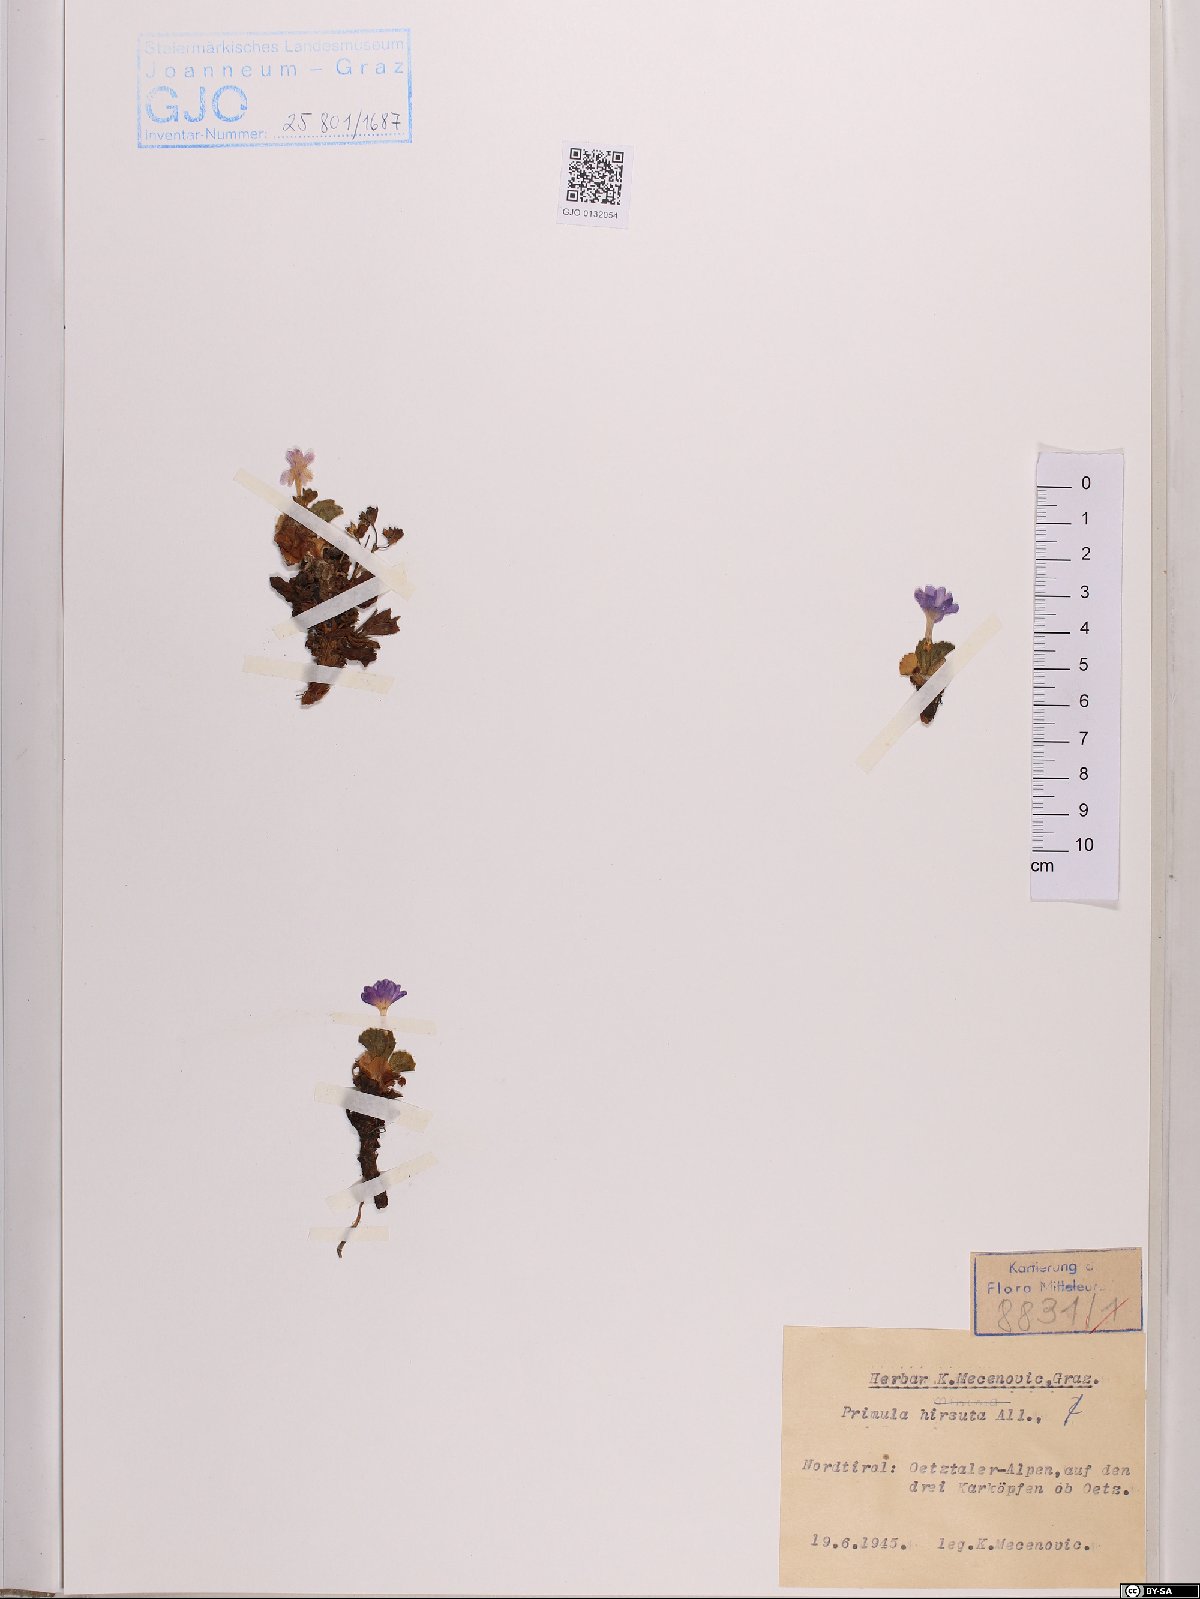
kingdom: Plantae
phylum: Tracheophyta
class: Magnoliopsida
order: Ericales
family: Primulaceae
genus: Primula
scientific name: Primula hirsuta
